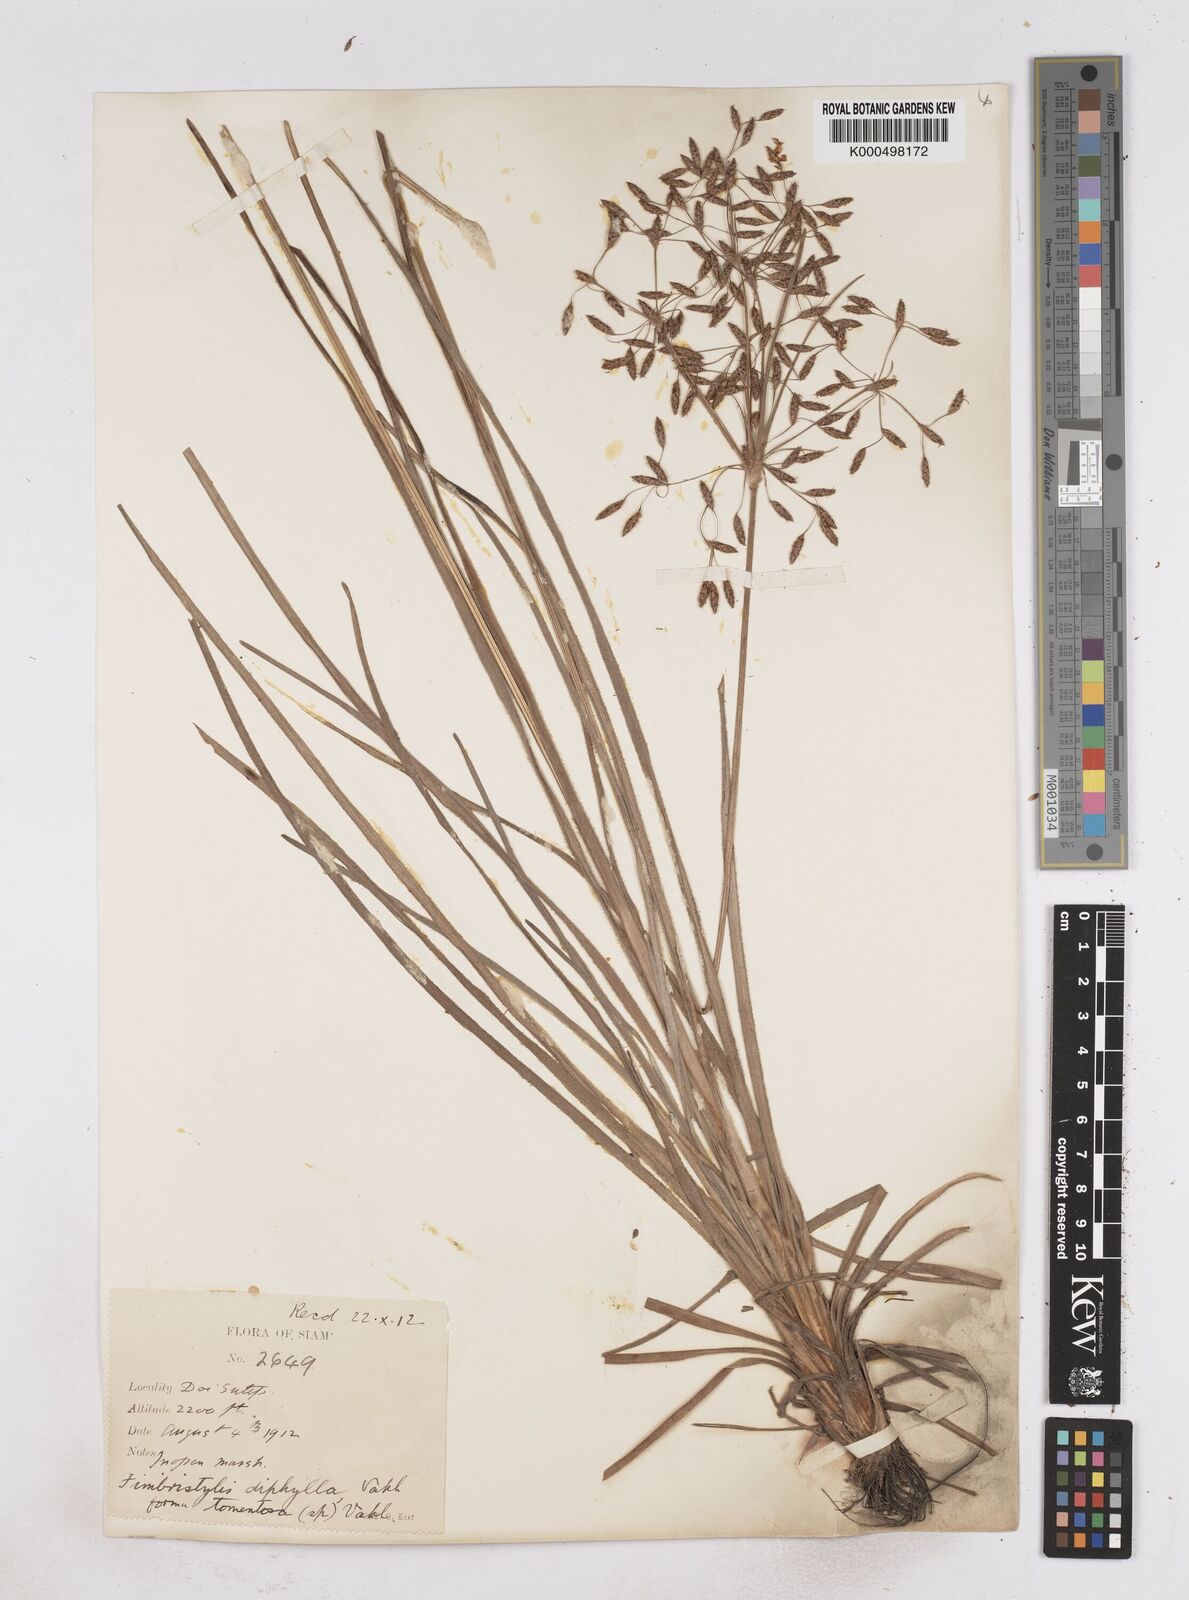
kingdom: Plantae
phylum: Tracheophyta
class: Liliopsida
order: Poales
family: Cyperaceae
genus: Fimbristylis
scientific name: Fimbristylis dichotoma
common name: Forked fimbry
